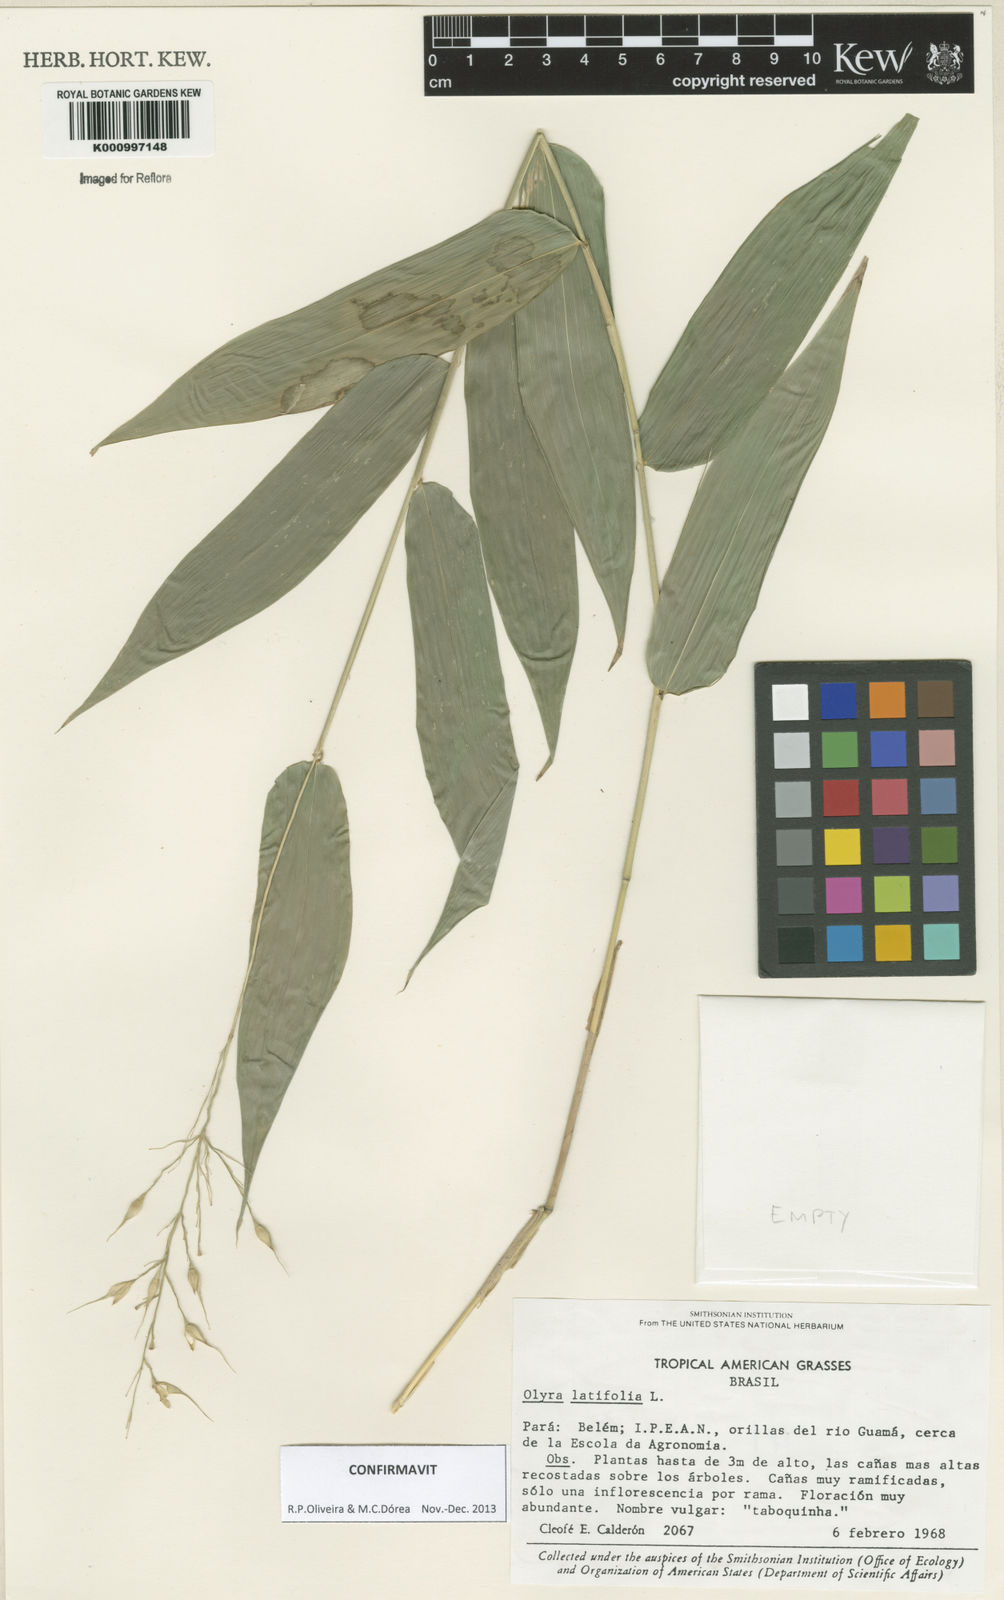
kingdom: Plantae
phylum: Tracheophyta
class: Liliopsida
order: Poales
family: Poaceae
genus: Olyra
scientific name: Olyra latifolia
